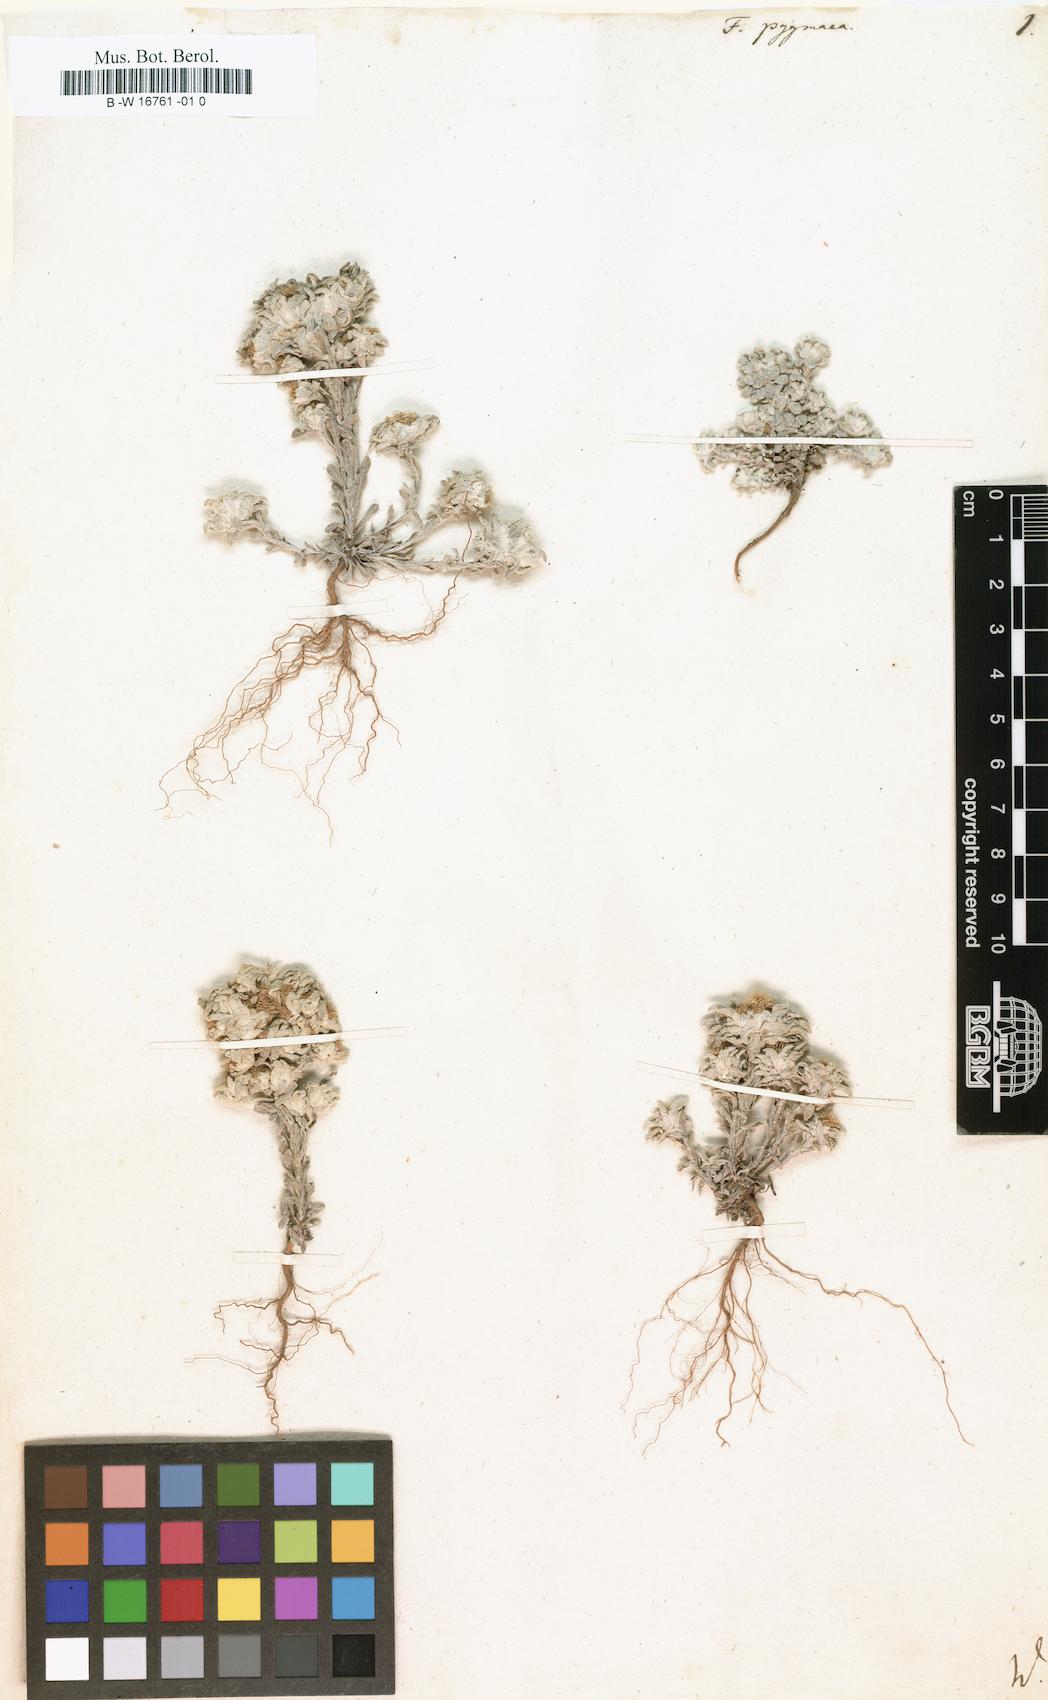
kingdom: Plantae
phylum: Tracheophyta
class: Magnoliopsida
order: Asterales
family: Asteraceae
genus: Filago
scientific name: Filago pygmaea
